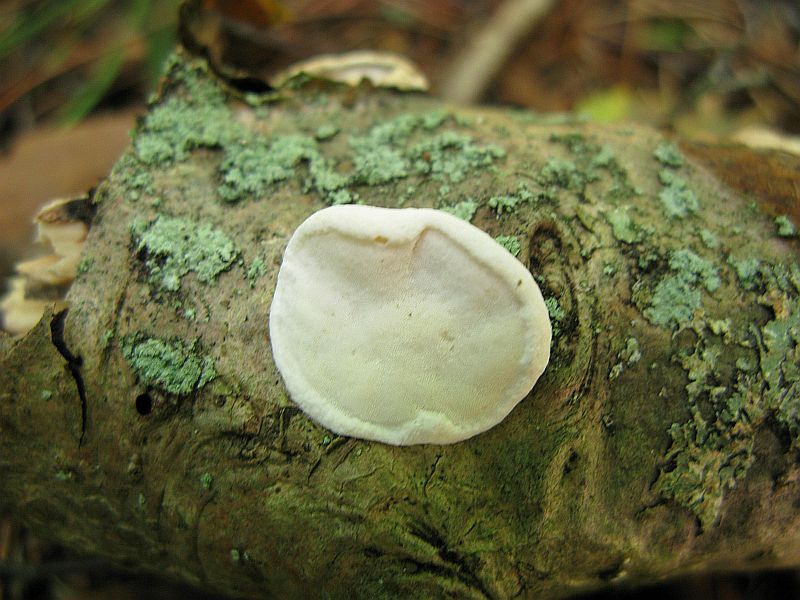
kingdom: Fungi
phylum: Basidiomycota
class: Agaricomycetes
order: Polyporales
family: Incrustoporiaceae
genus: Skeletocutis
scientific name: Skeletocutis nemoralis
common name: stor krystalporesvamp
